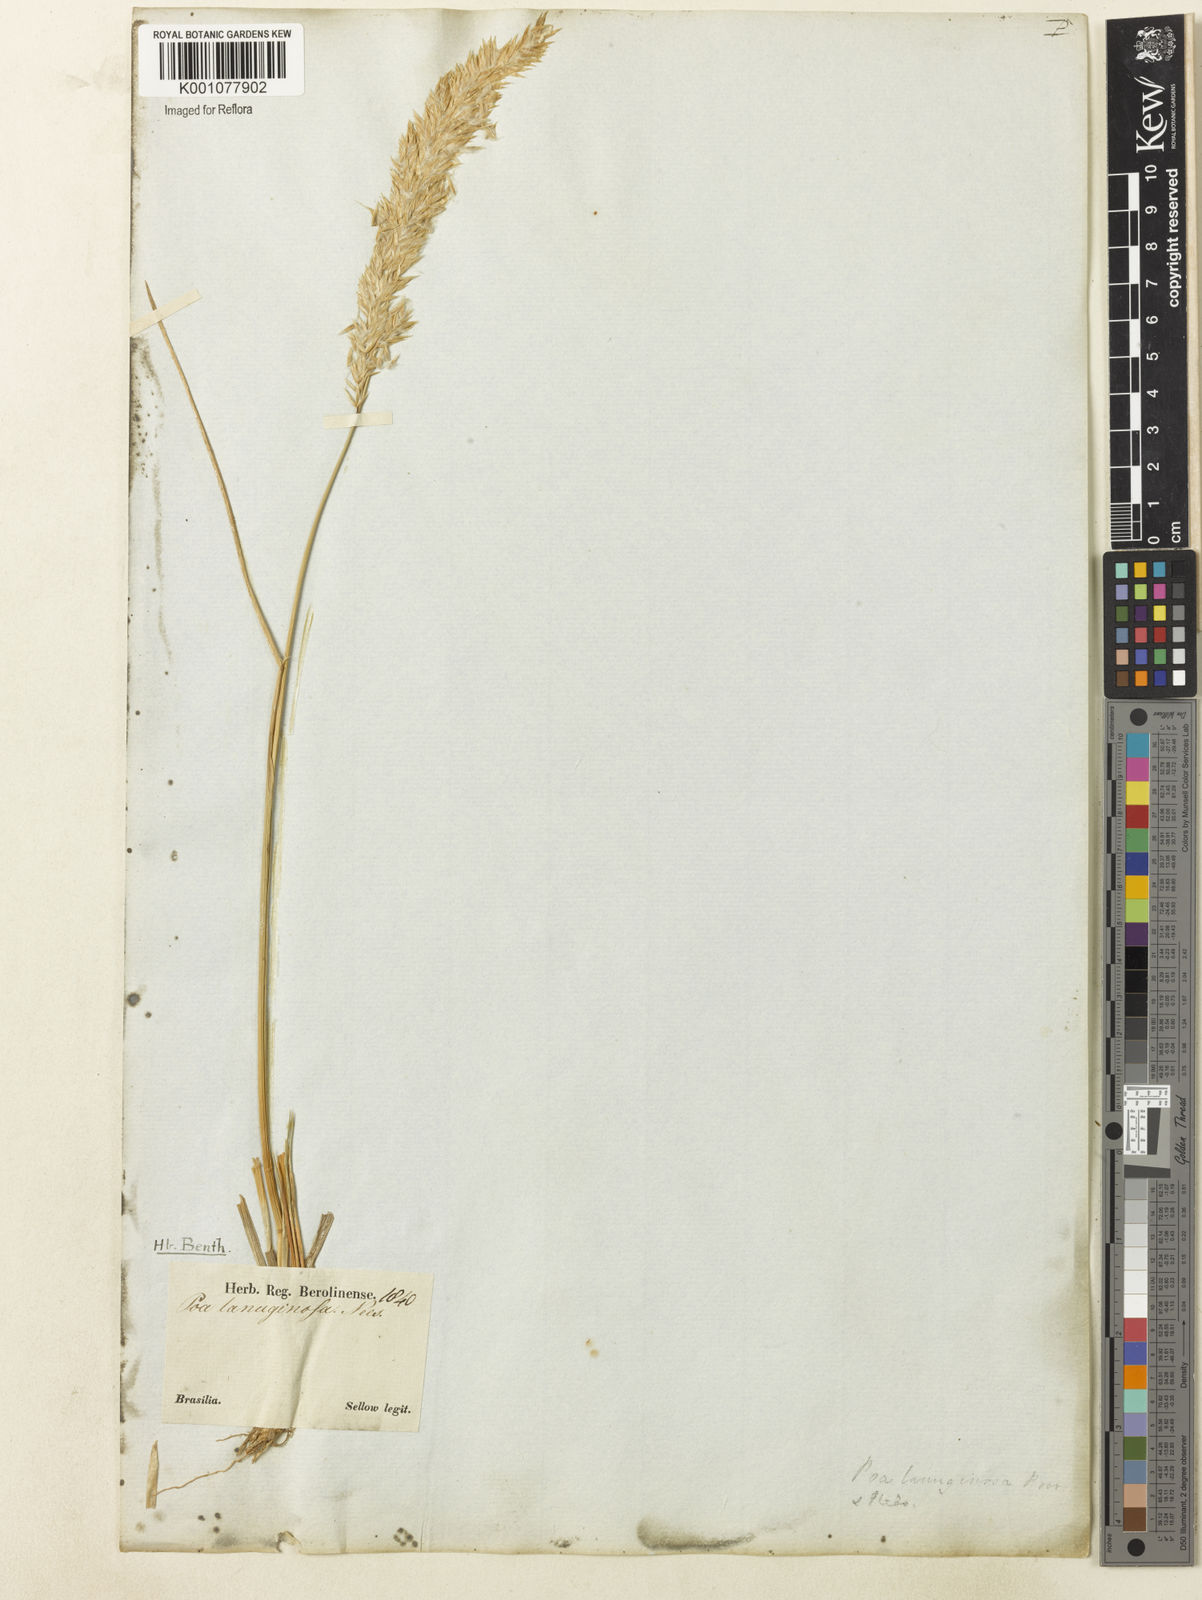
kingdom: Plantae
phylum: Tracheophyta
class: Liliopsida
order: Poales
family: Poaceae
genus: Poa
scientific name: Poa lanuginosa
